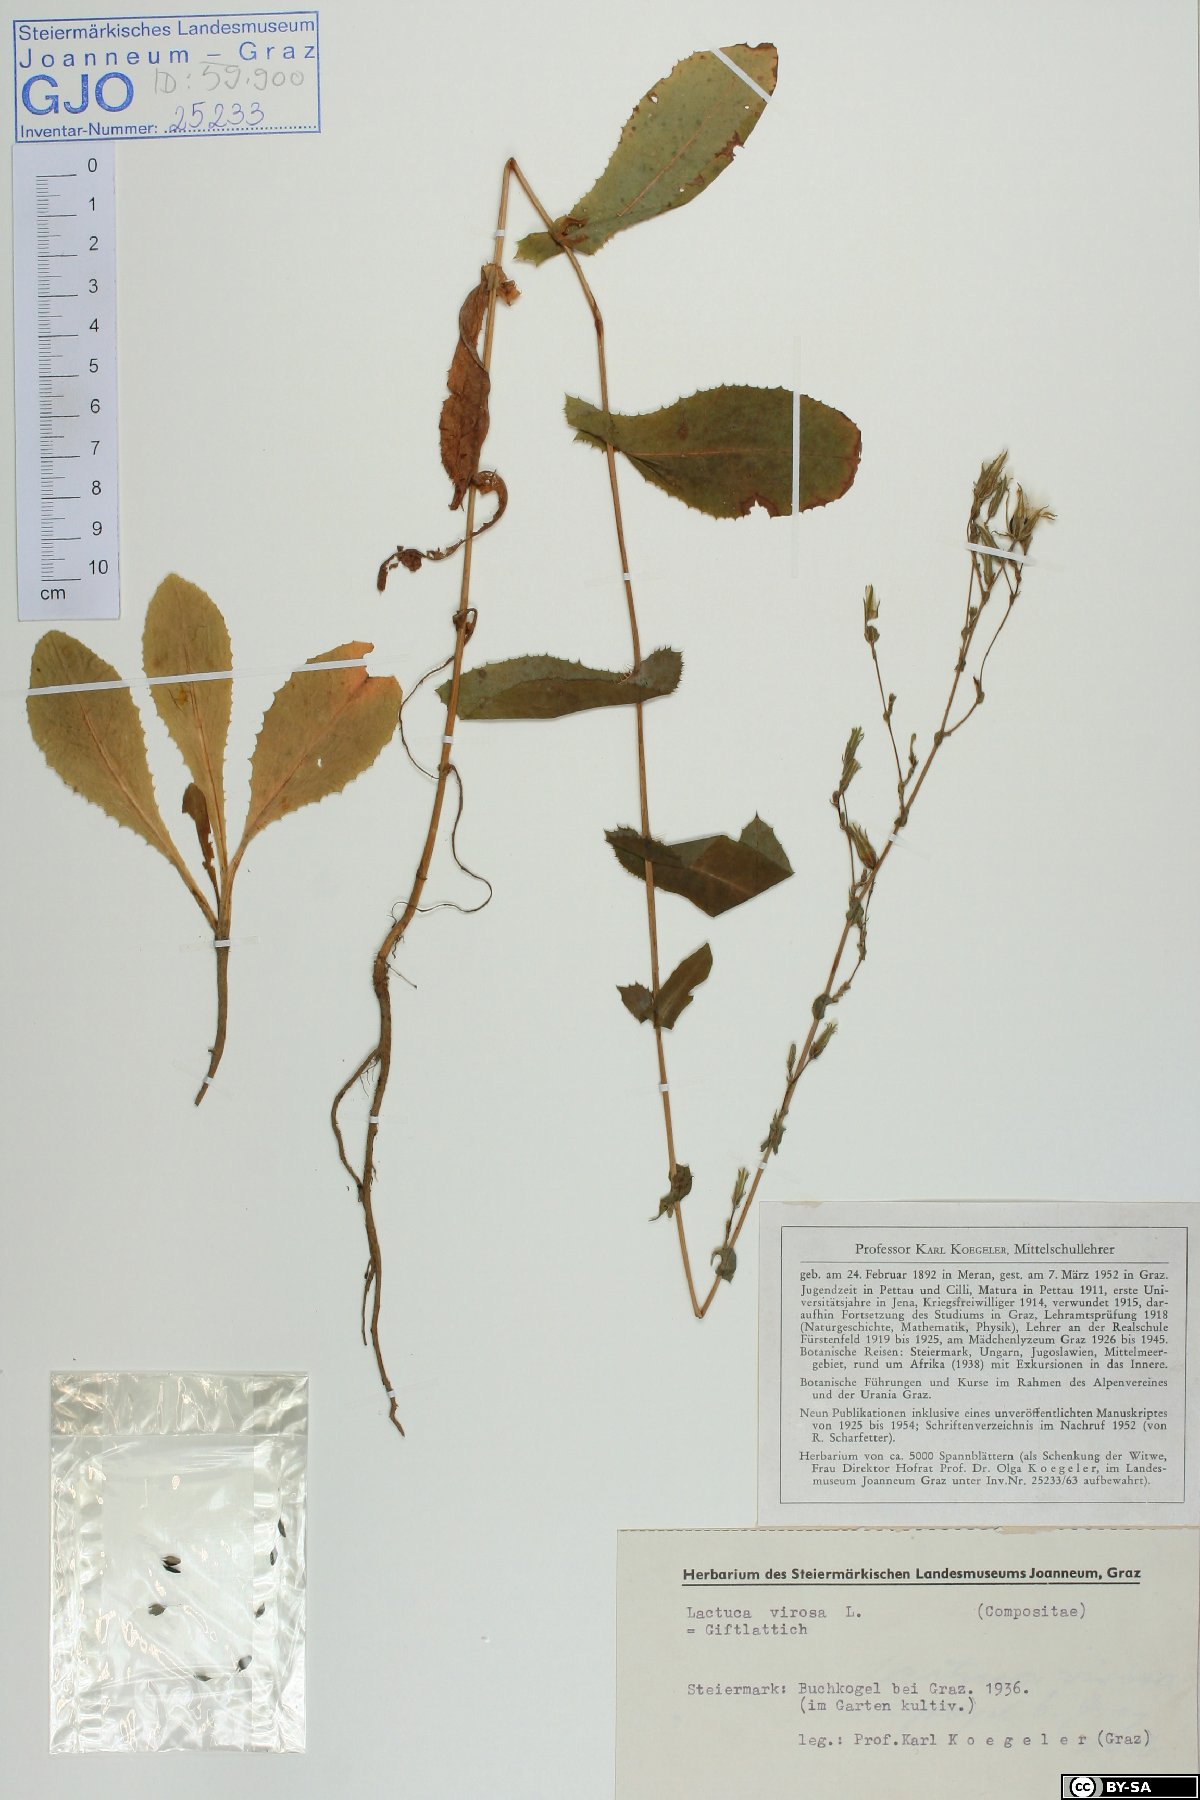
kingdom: Plantae
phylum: Tracheophyta
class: Magnoliopsida
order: Asterales
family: Asteraceae
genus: Lactuca
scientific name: Lactuca virosa
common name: Great lettuce
